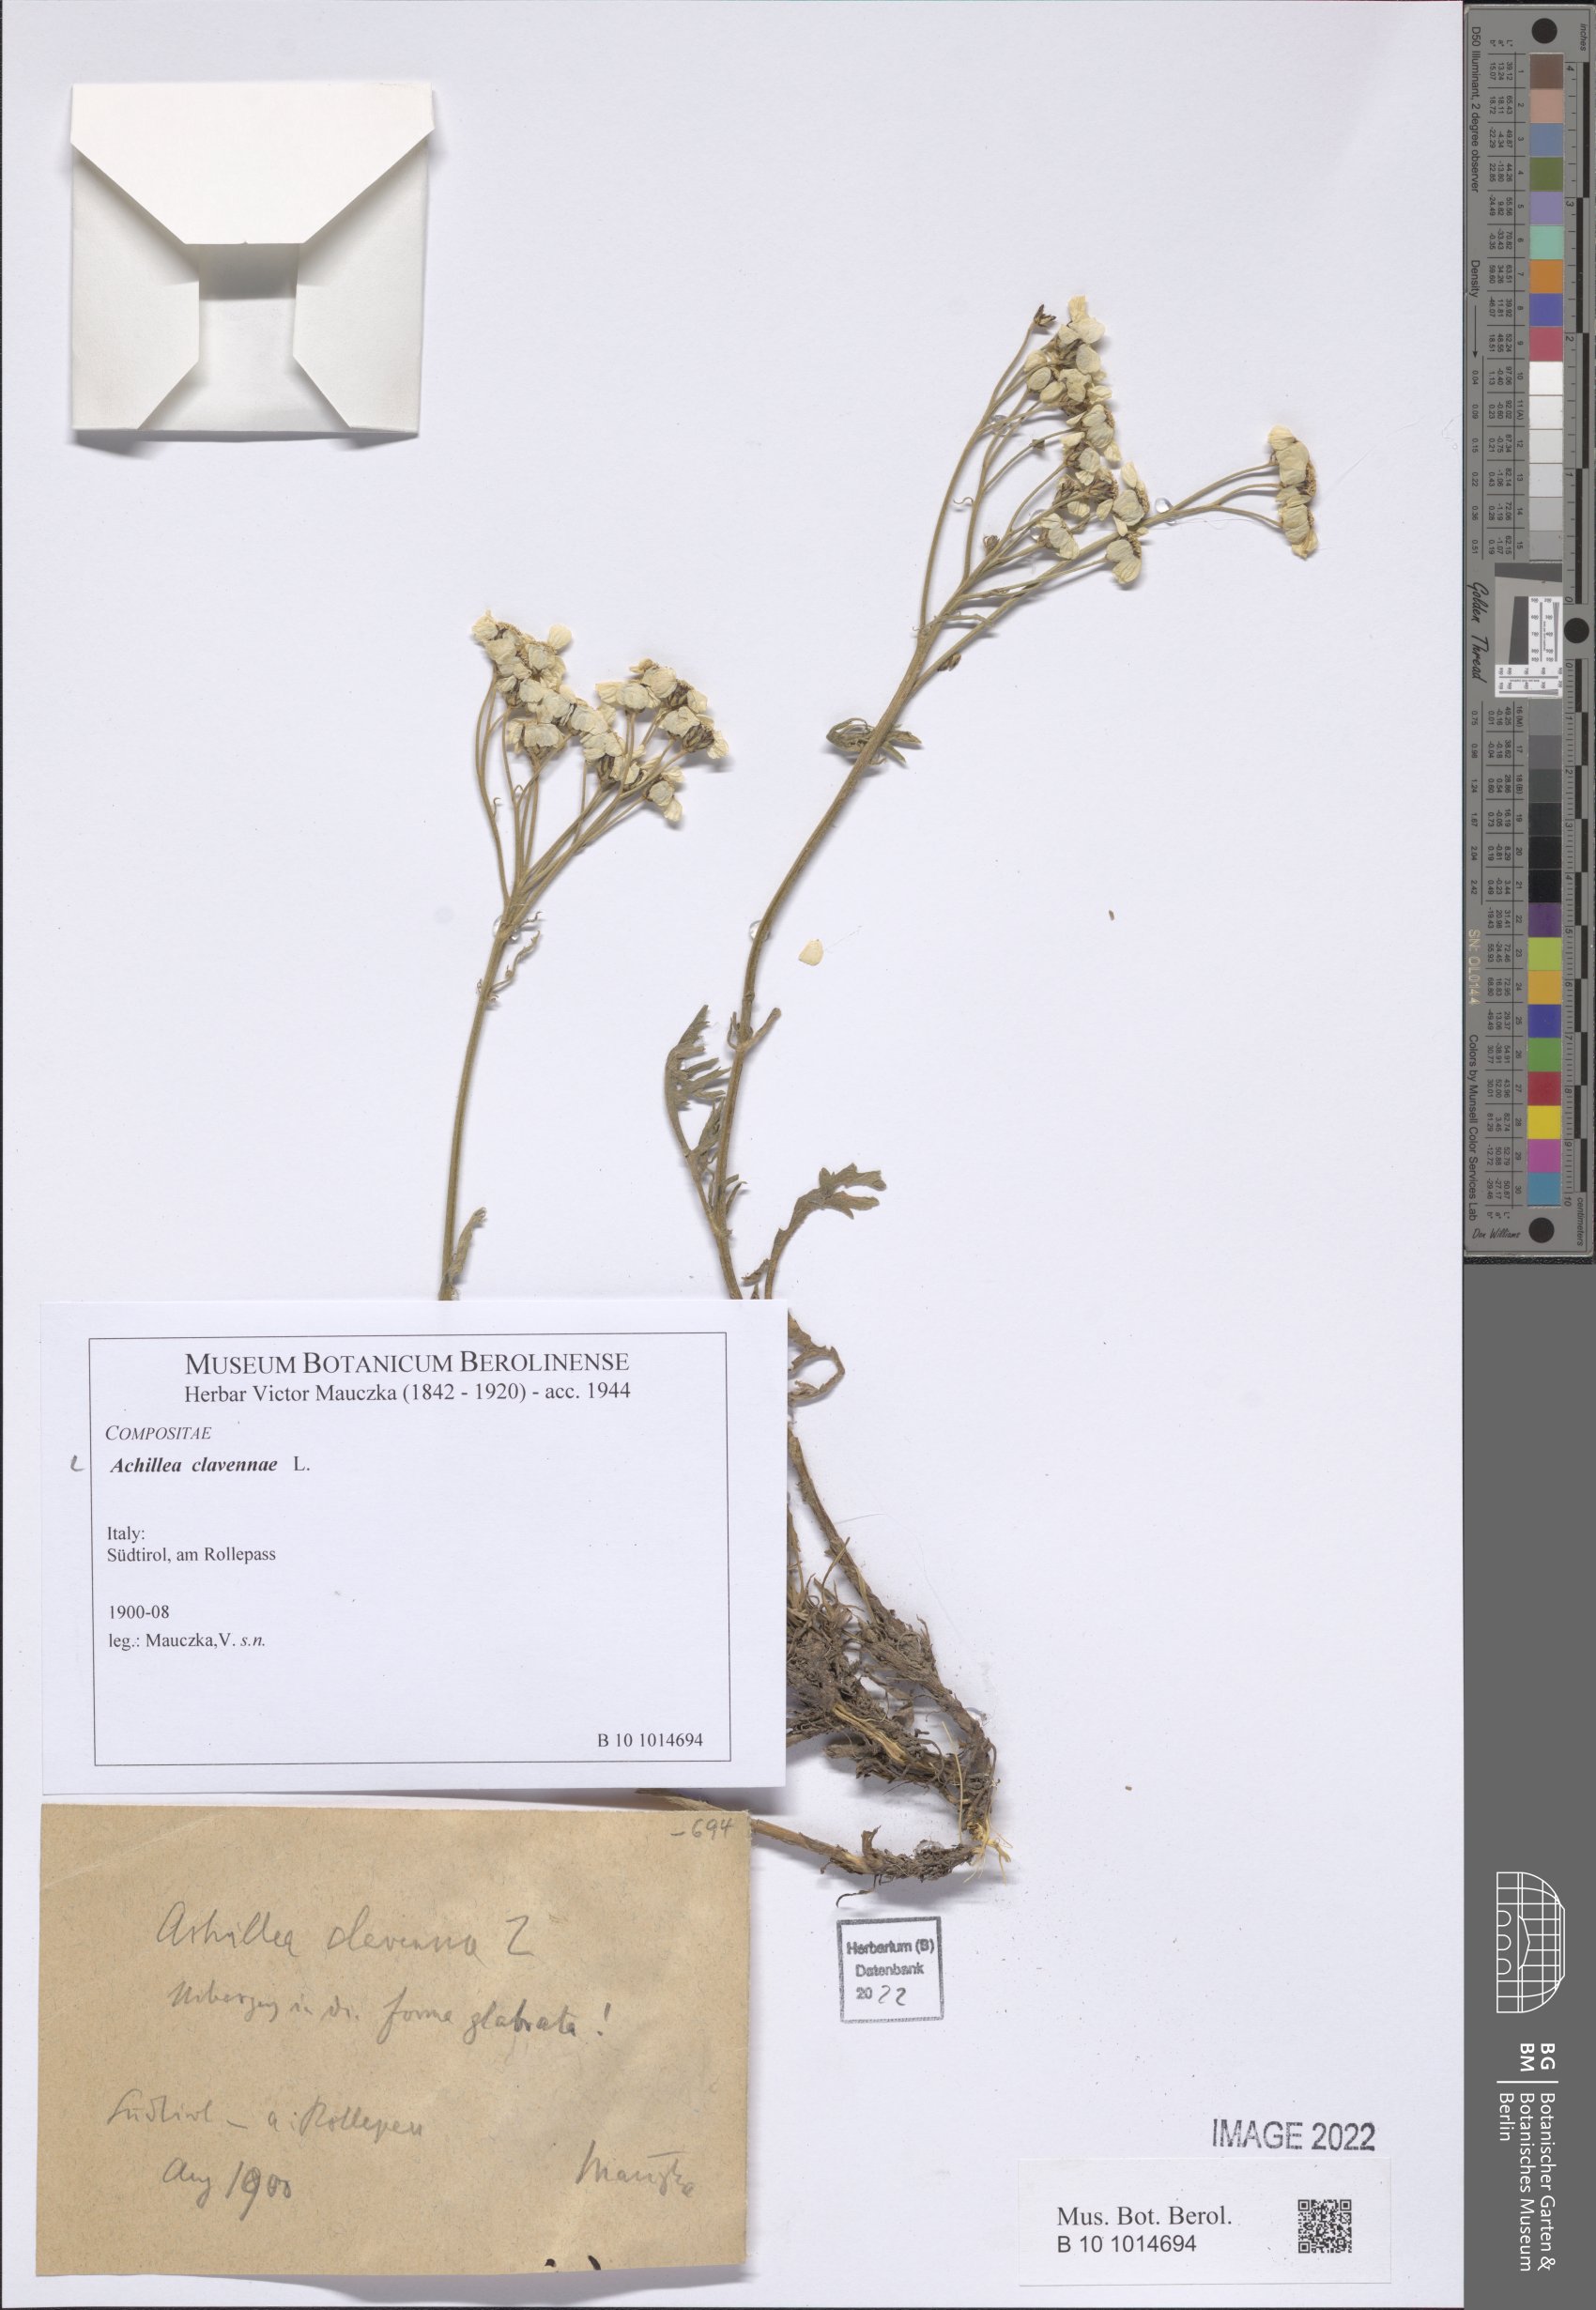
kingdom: Plantae
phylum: Tracheophyta
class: Magnoliopsida
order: Asterales
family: Asteraceae
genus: Achillea
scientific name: Achillea clavennae
